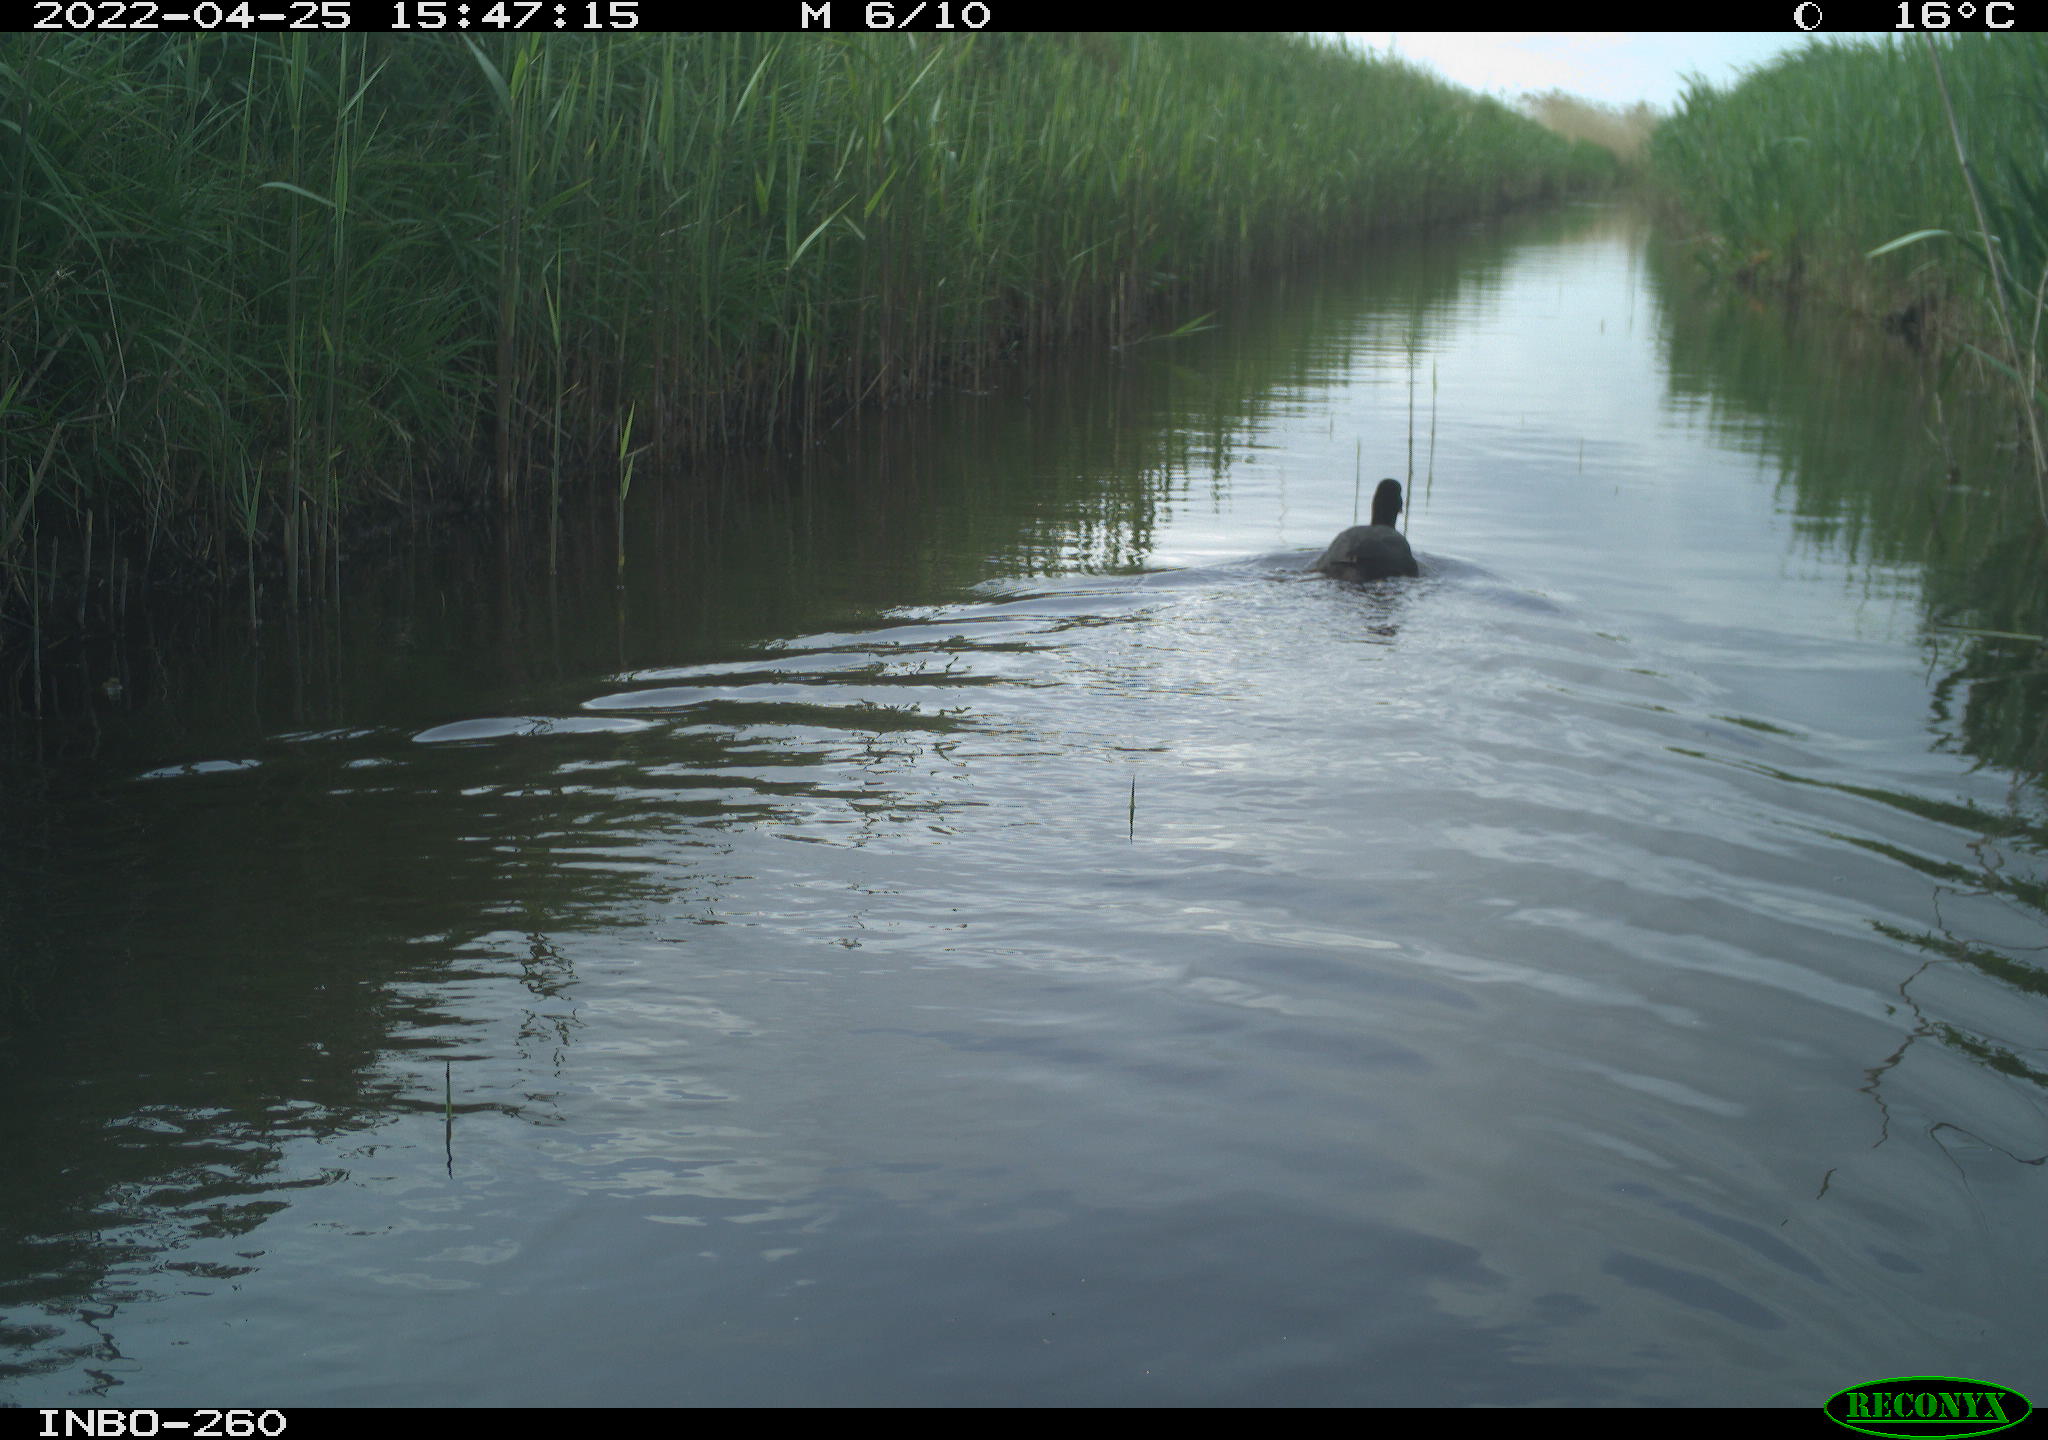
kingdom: Animalia
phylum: Chordata
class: Aves
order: Gruiformes
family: Rallidae
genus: Fulica
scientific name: Fulica atra
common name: Eurasian coot
